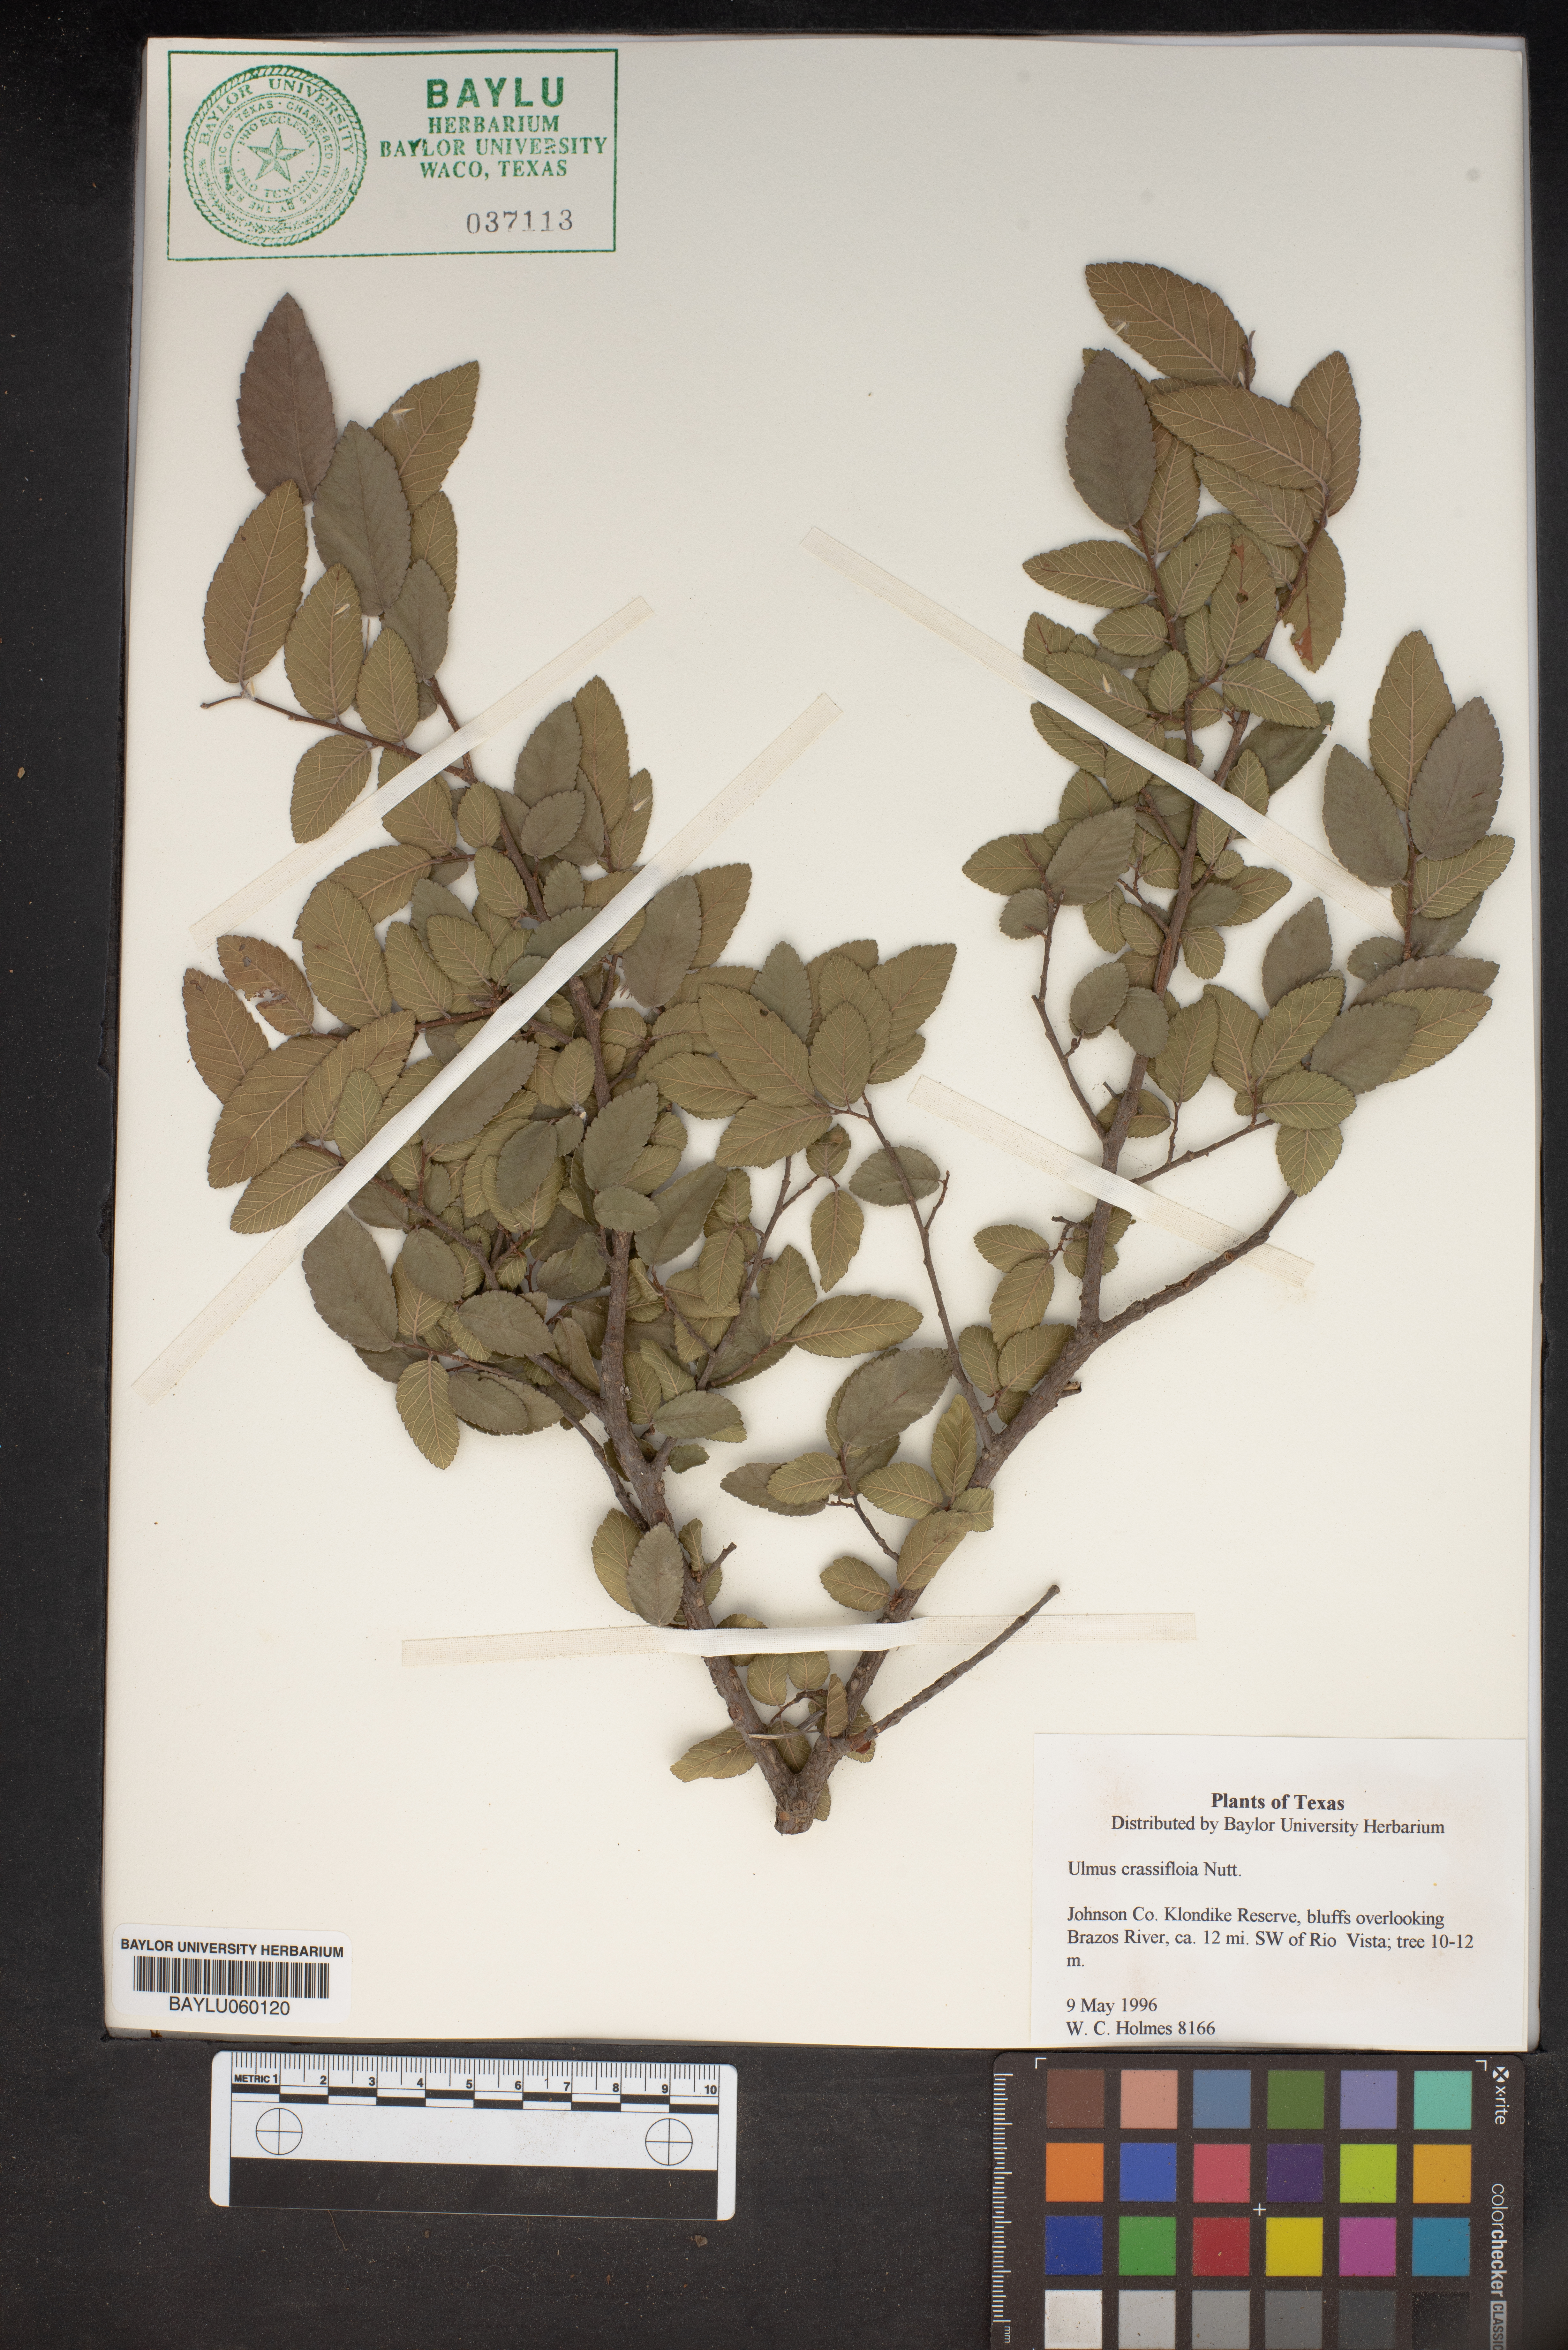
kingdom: Plantae
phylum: Tracheophyta
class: Magnoliopsida
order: Rosales
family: Ulmaceae
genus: Ulmus
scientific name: Ulmus crassifolia
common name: Basket elm
